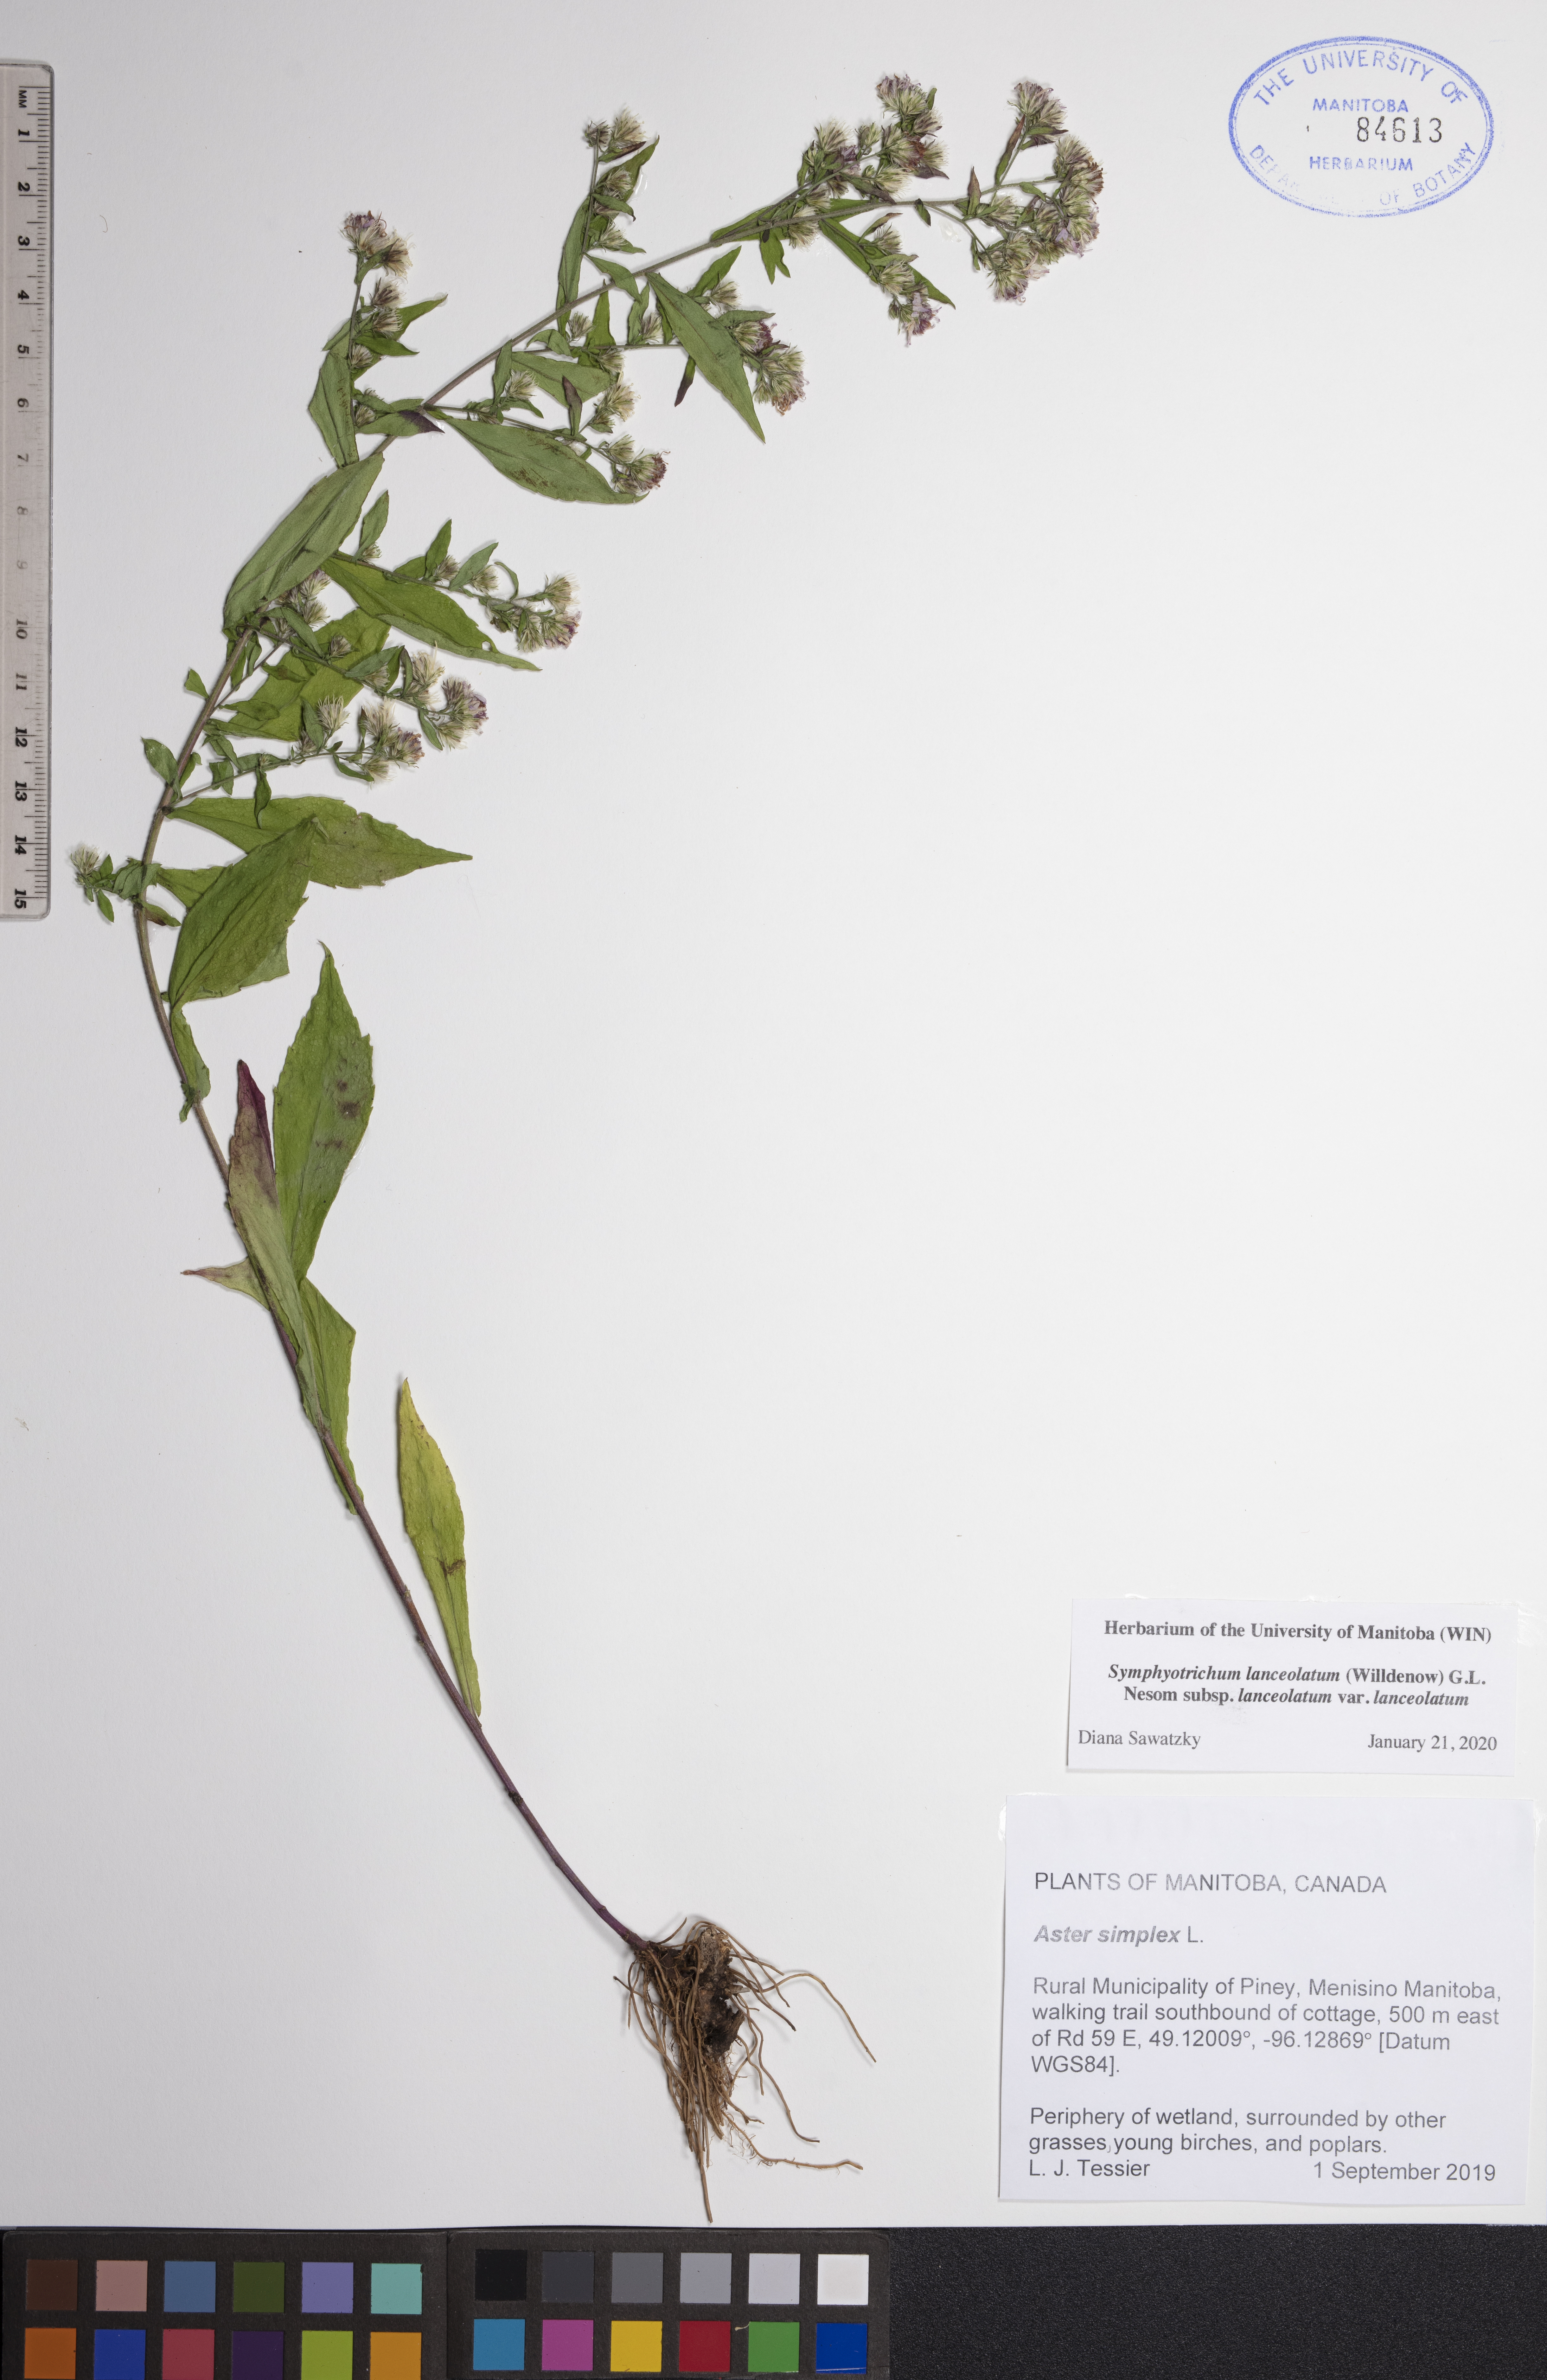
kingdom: Plantae
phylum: Tracheophyta
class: Magnoliopsida
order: Asterales
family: Asteraceae
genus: Symphyotrichum
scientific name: Symphyotrichum lanceolatum
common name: Panicled aster
